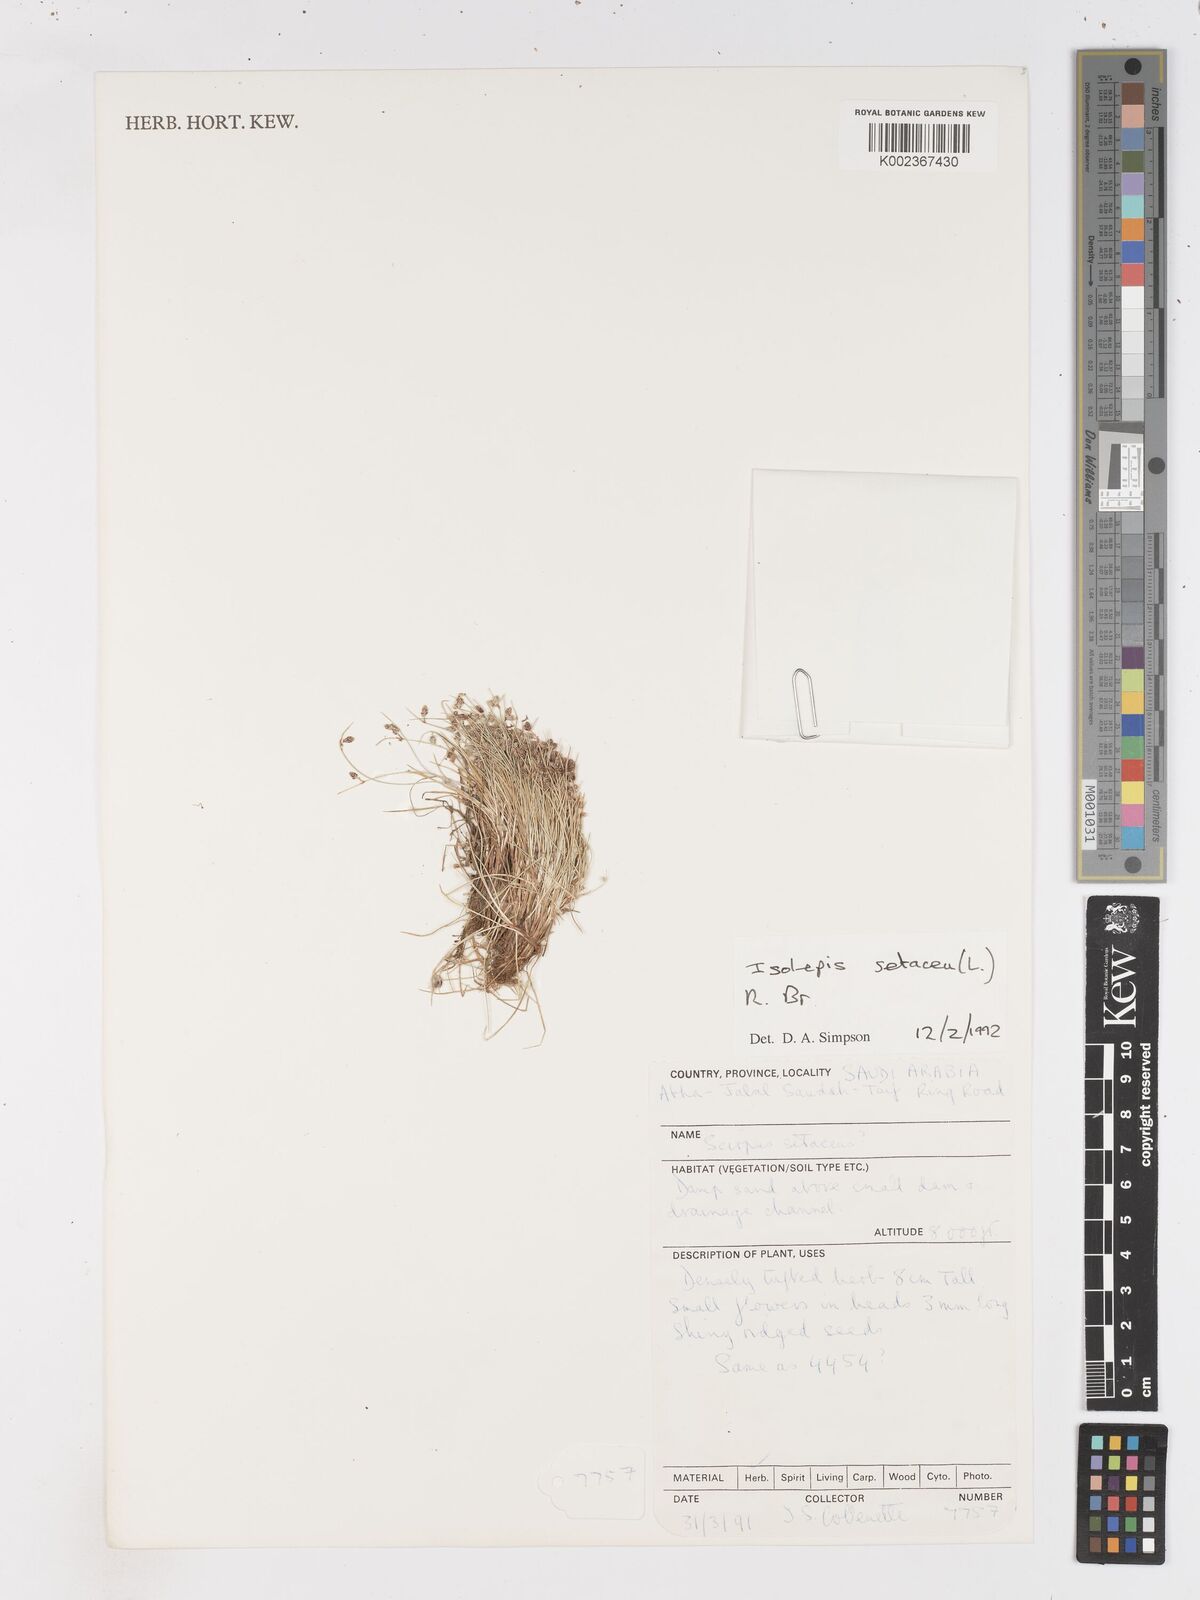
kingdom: Plantae
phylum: Tracheophyta
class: Liliopsida
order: Poales
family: Cyperaceae
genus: Isolepis
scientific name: Isolepis setacea
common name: Bristle club-rush
